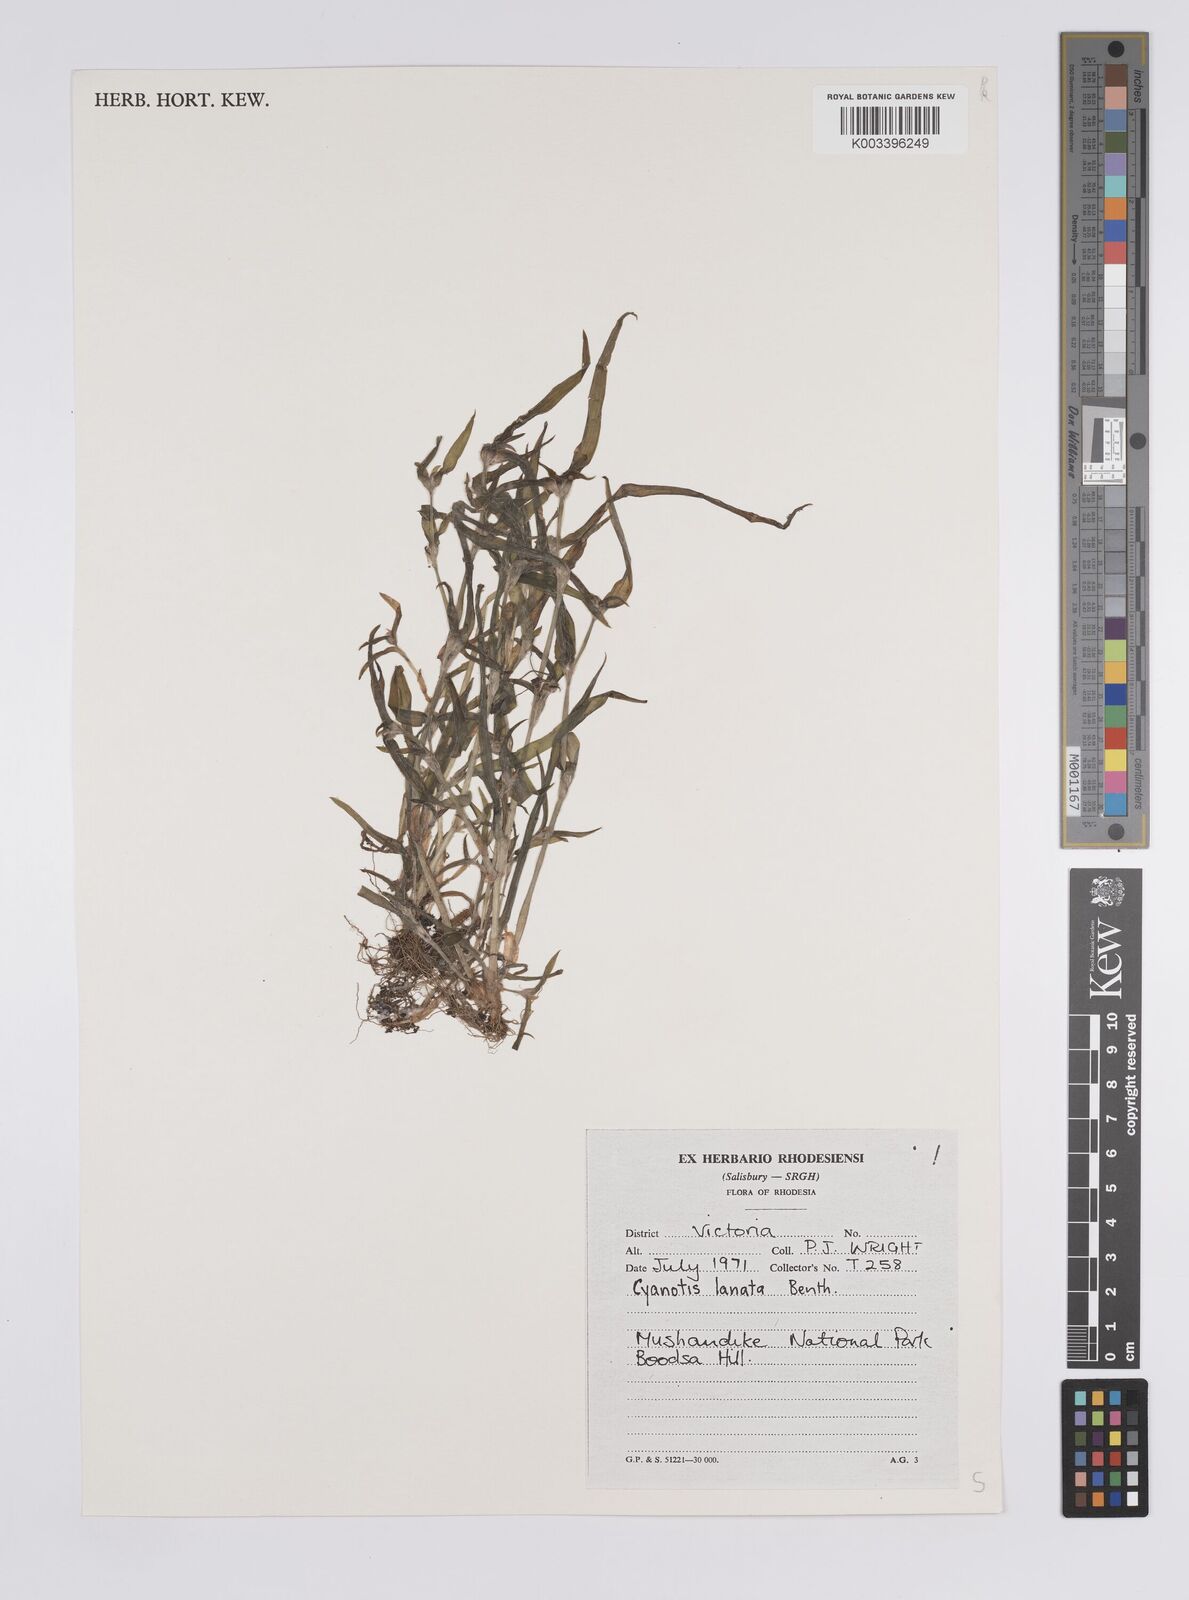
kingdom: Plantae
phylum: Tracheophyta
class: Liliopsida
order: Commelinales
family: Commelinaceae
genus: Cyanotis
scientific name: Cyanotis lanata
